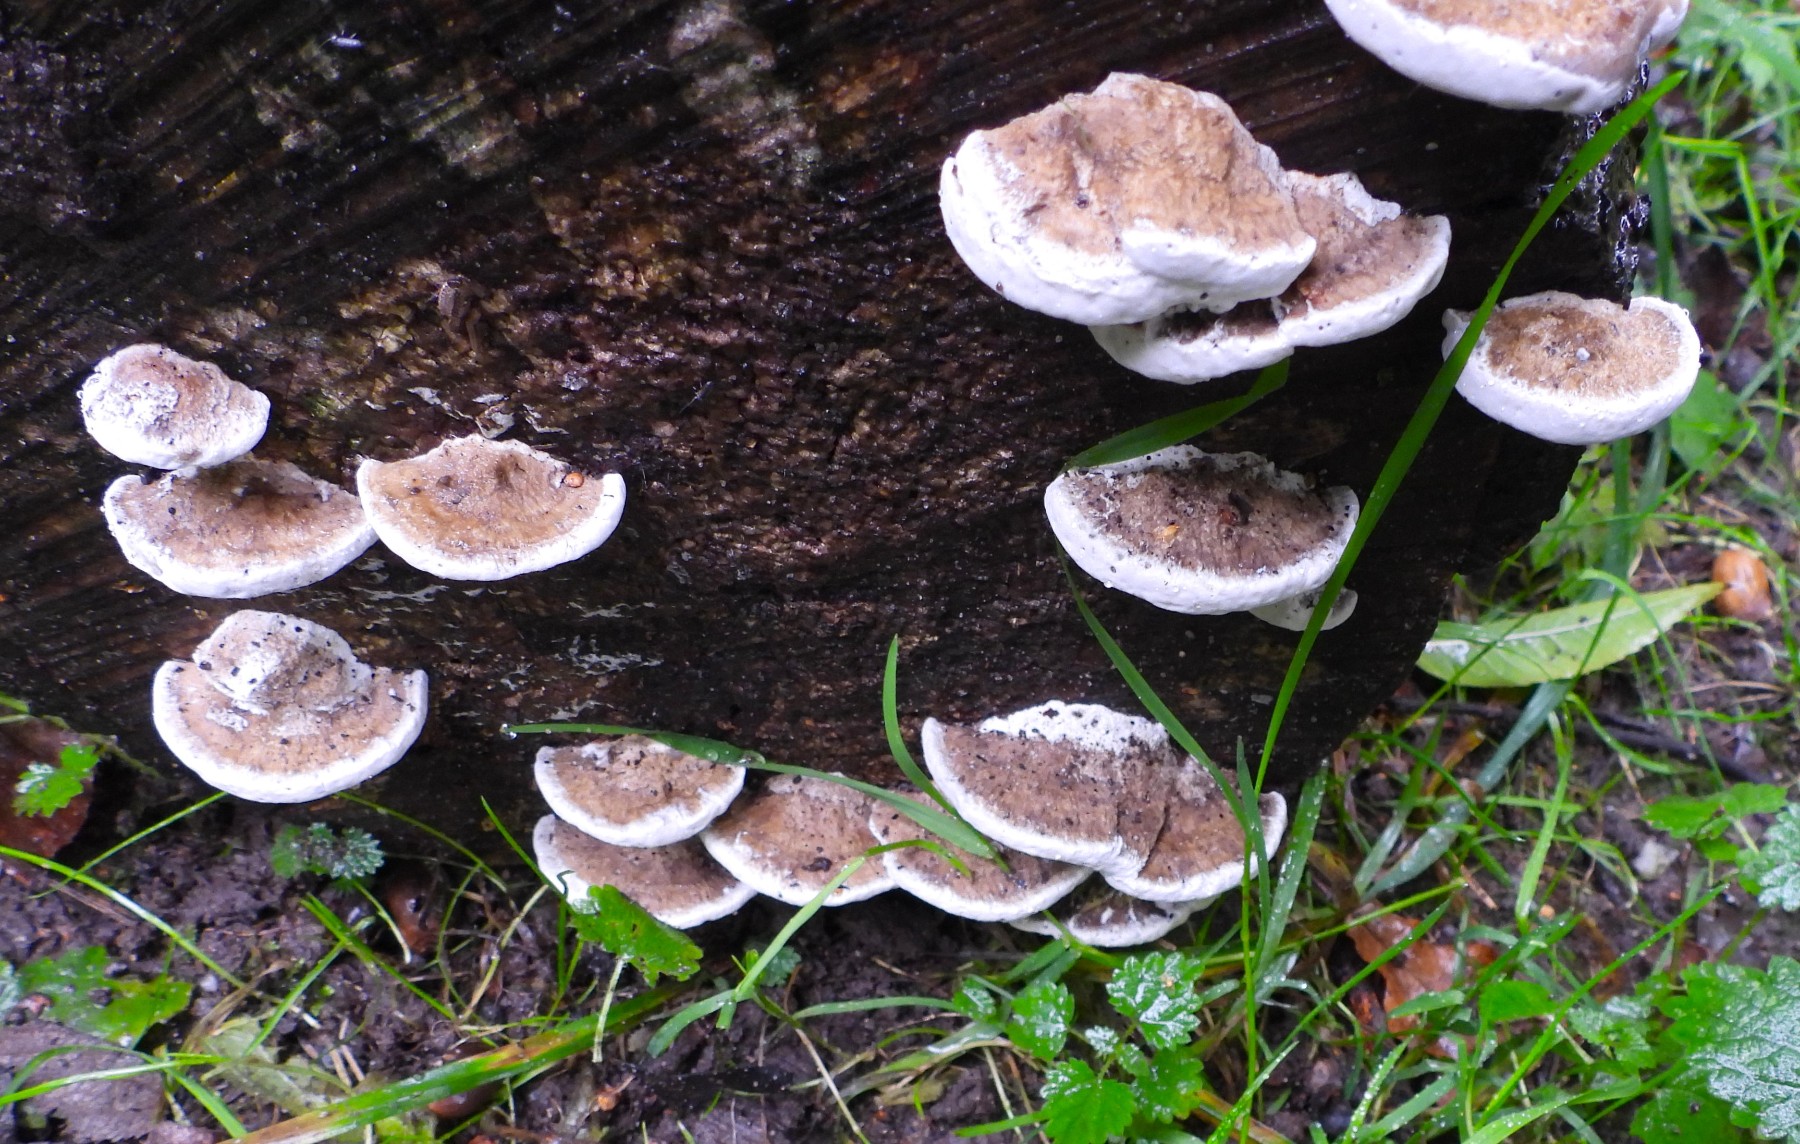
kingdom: Fungi
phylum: Basidiomycota
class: Agaricomycetes
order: Polyporales
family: Polyporaceae
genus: Daedaleopsis
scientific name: Daedaleopsis confragosa
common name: rødmende læderporesvamp
